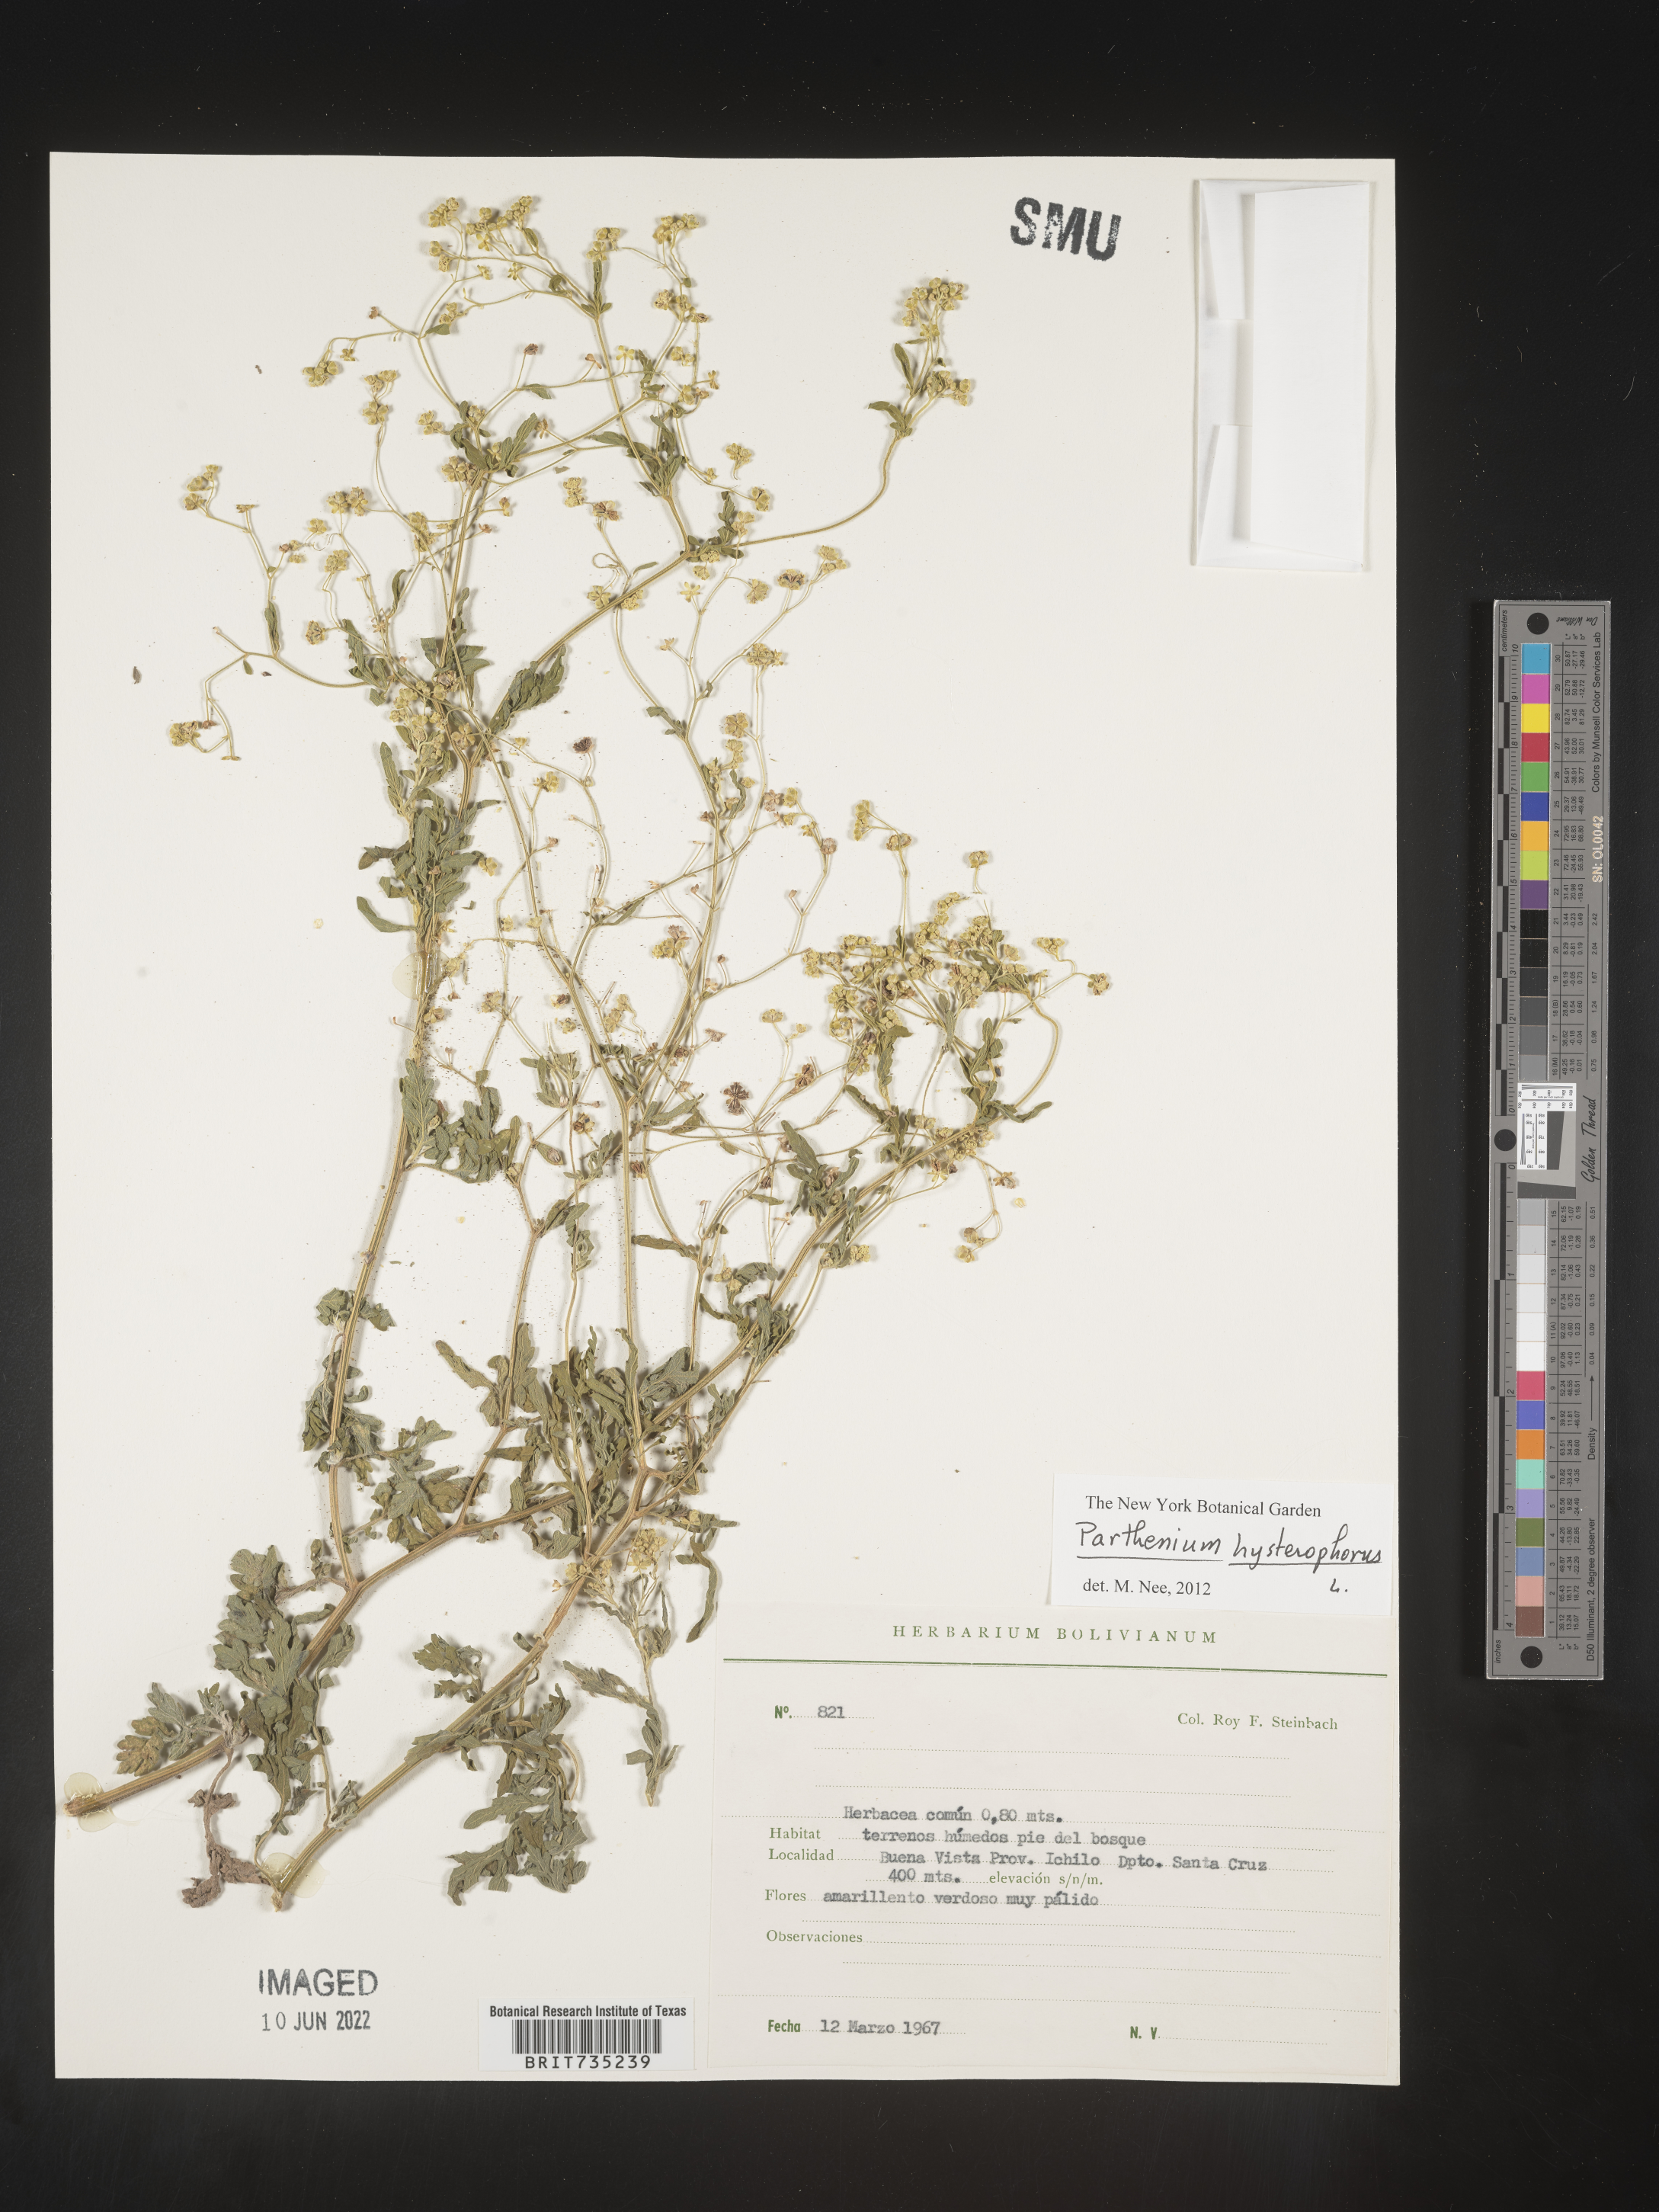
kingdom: Plantae
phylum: Tracheophyta
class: Magnoliopsida
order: Asterales
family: Asteraceae
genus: Parthenium
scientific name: Parthenium
